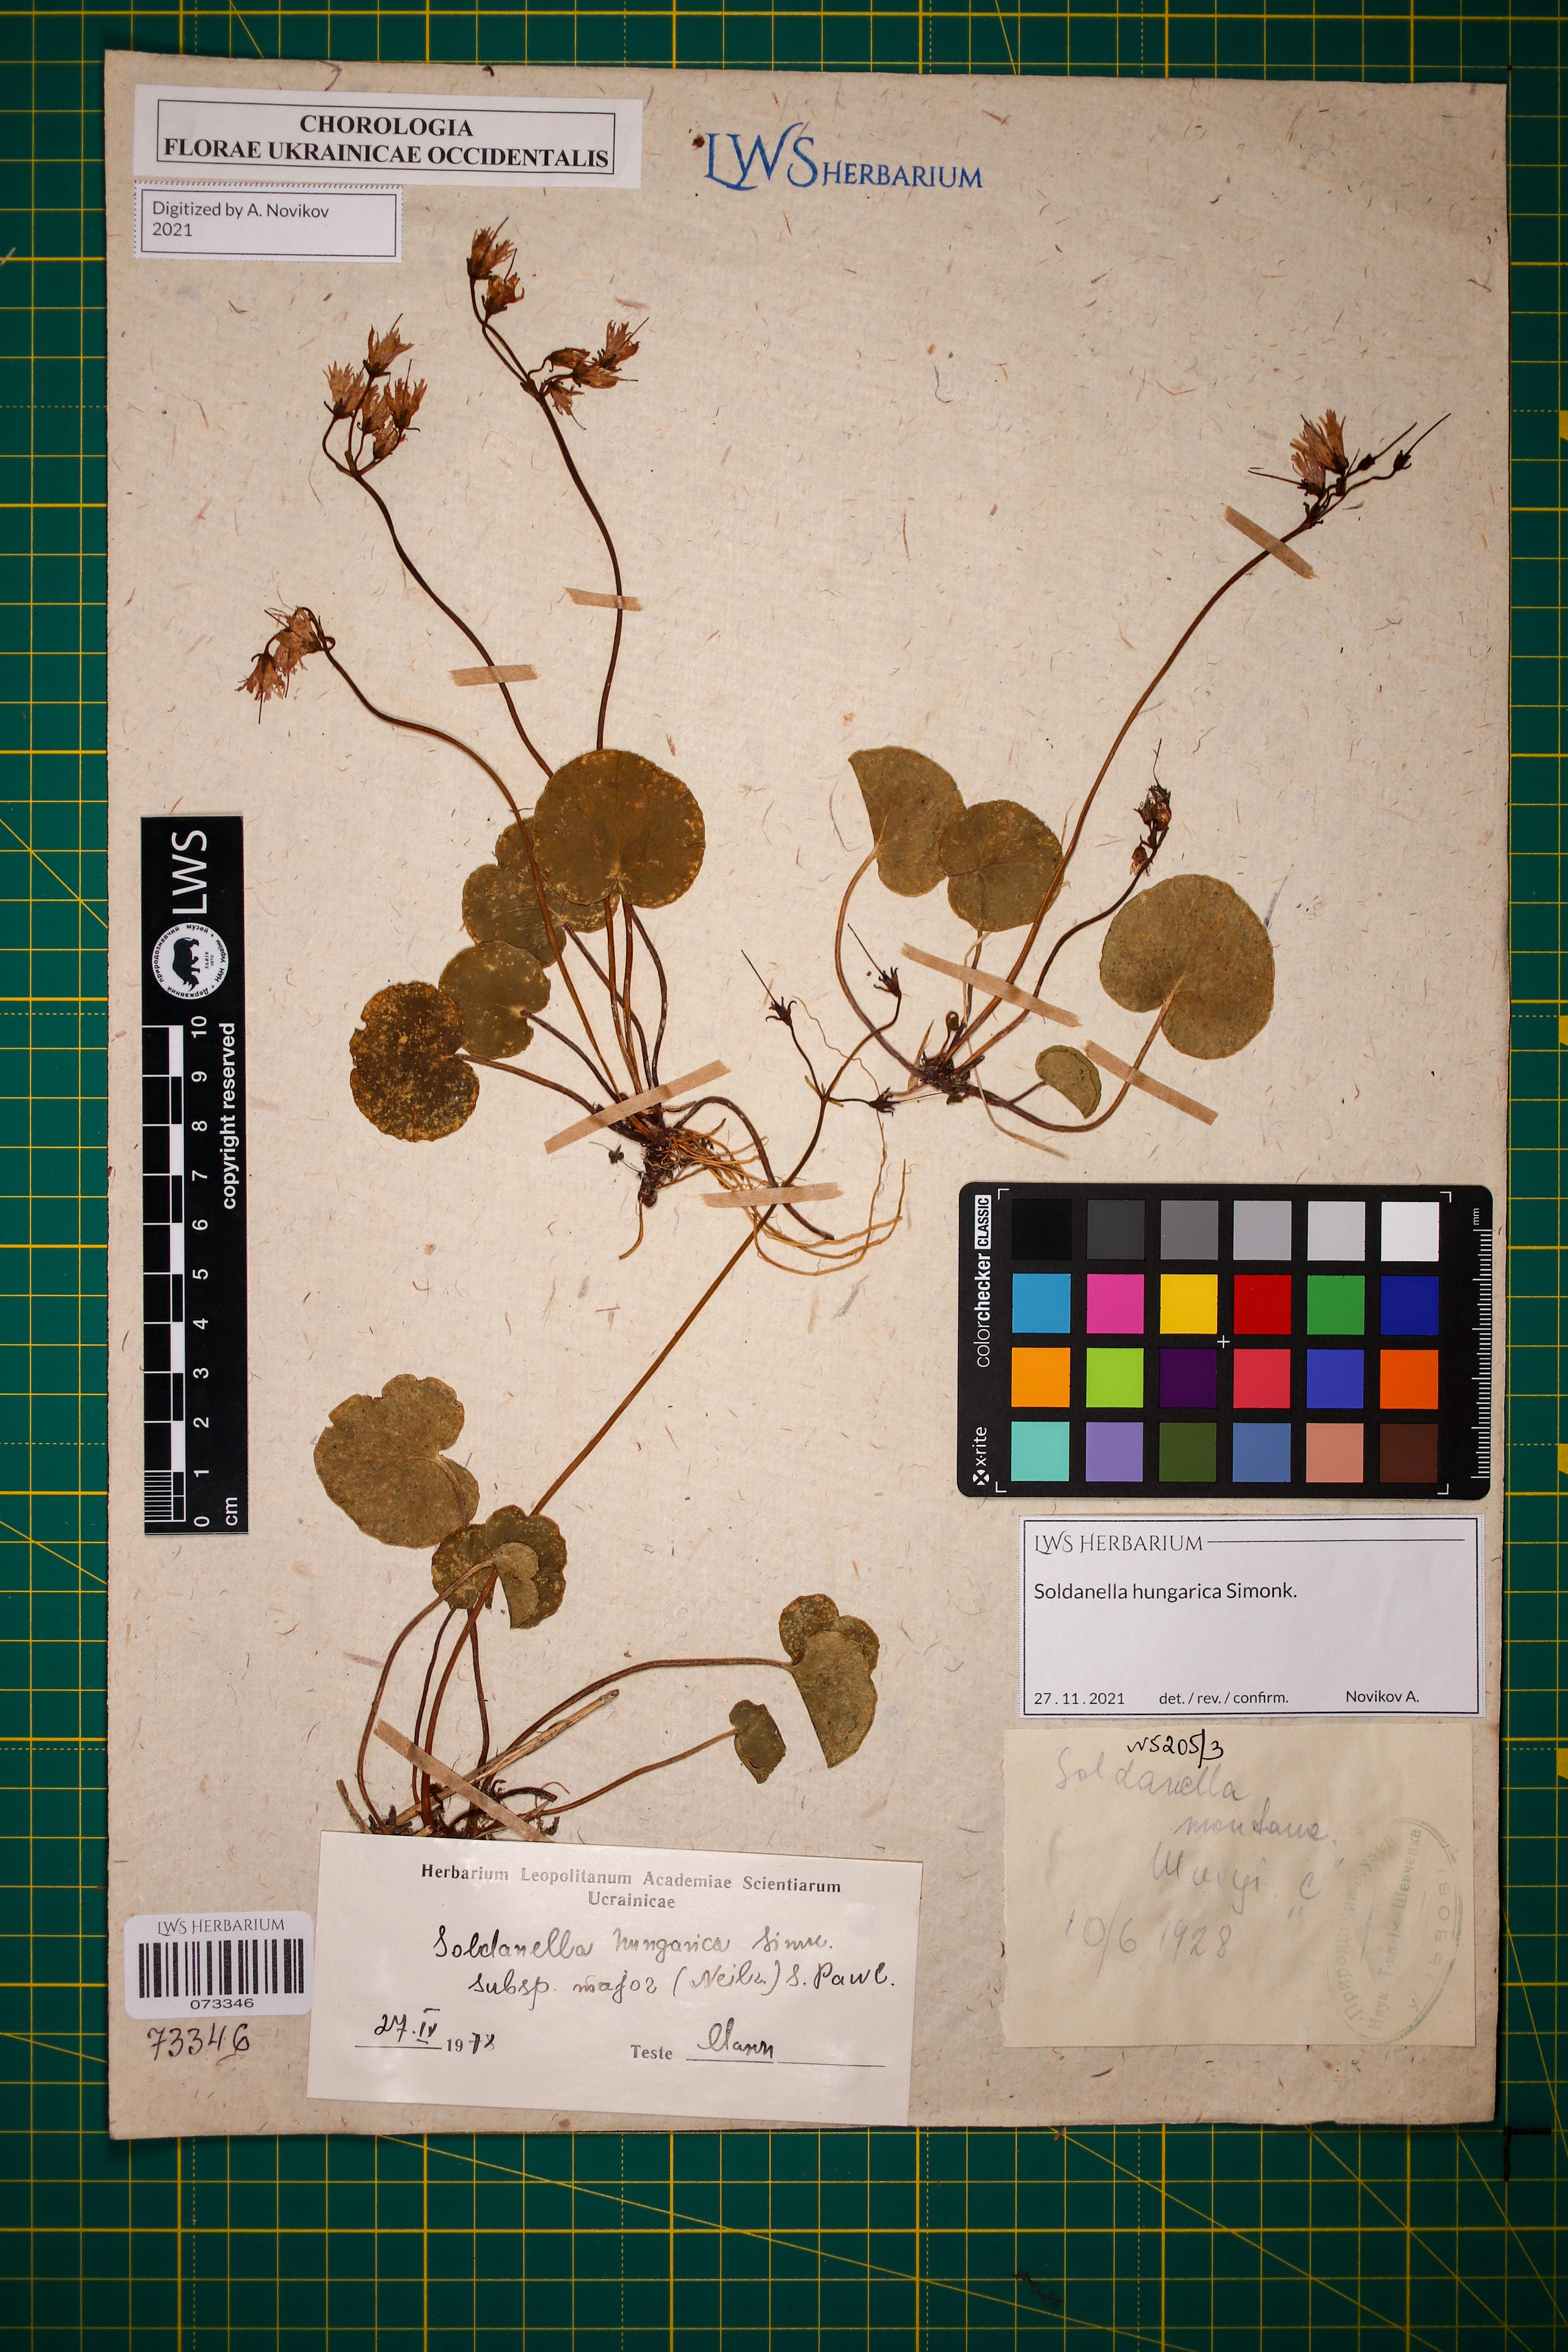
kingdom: Plantae
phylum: Tracheophyta
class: Magnoliopsida
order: Ericales
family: Primulaceae
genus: Soldanella
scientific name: Soldanella hungarica
